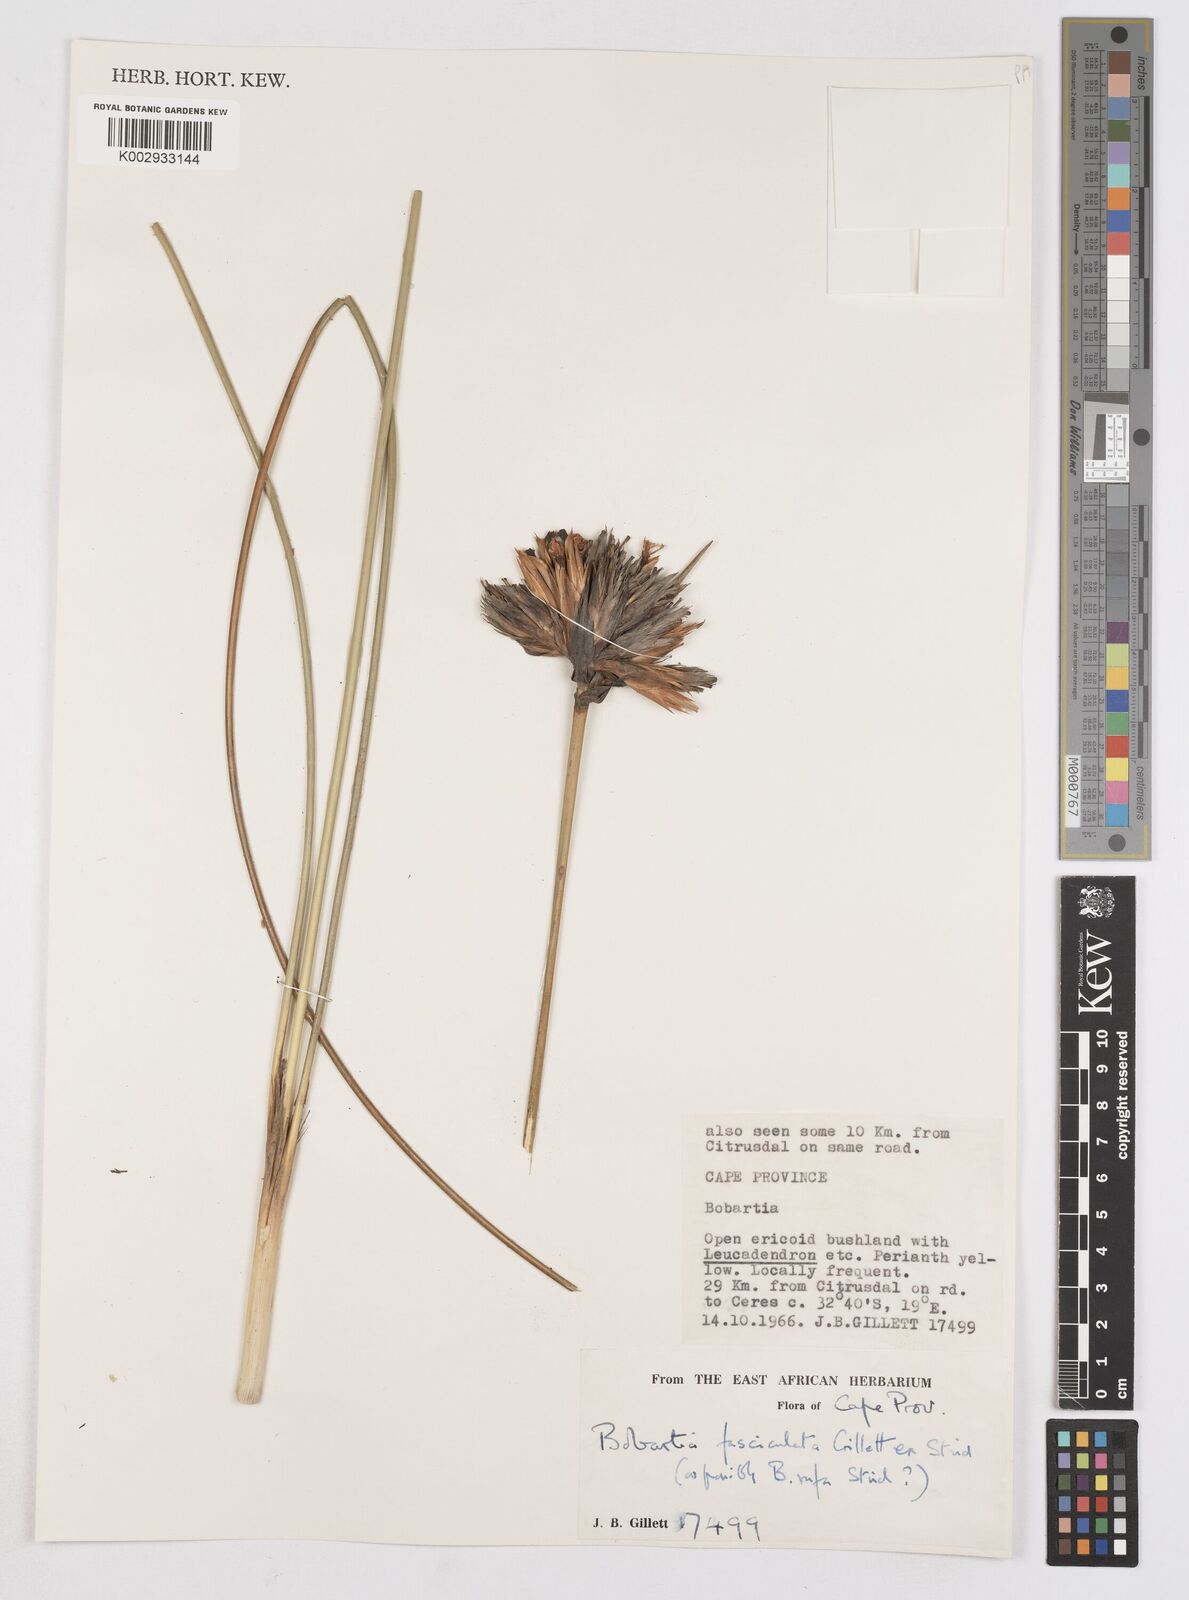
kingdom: Plantae
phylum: Tracheophyta
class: Liliopsida
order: Asparagales
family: Iridaceae
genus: Bobartia
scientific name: Bobartia fasciculata
